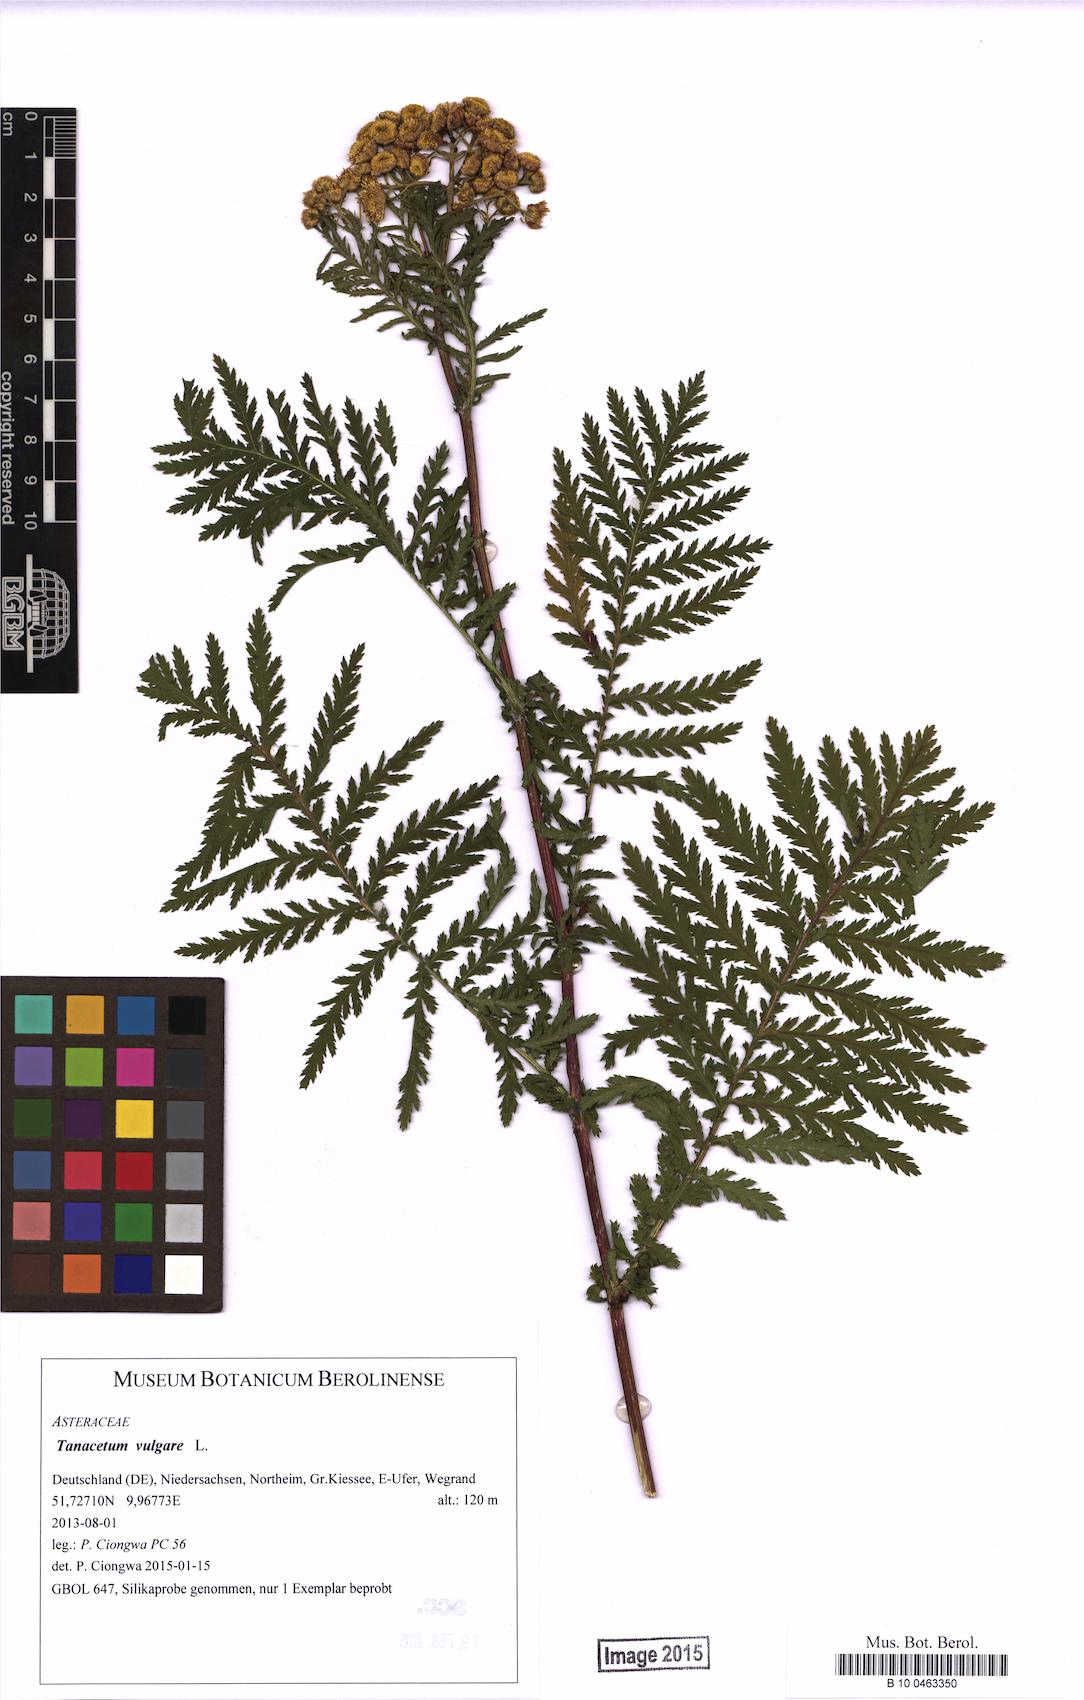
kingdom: Plantae
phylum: Tracheophyta
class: Magnoliopsida
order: Asterales
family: Asteraceae
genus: Tanacetum
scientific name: Tanacetum vulgare
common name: Common tansy
